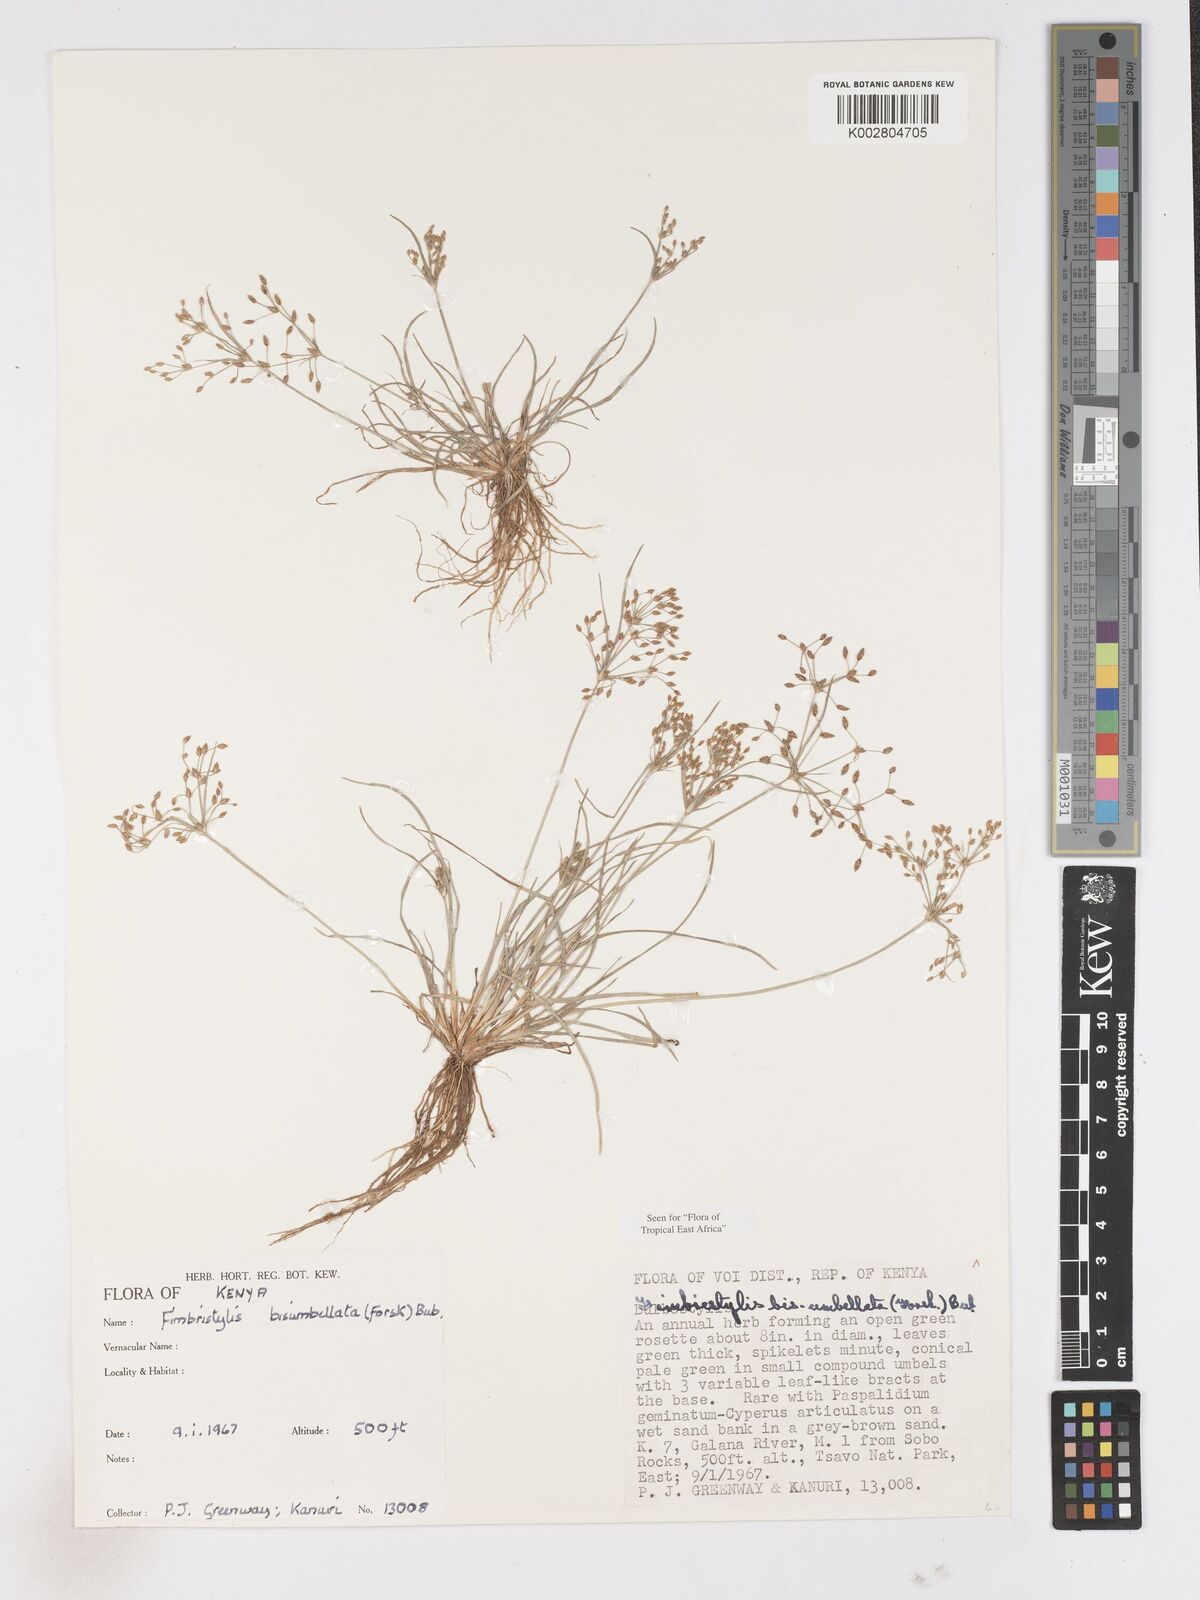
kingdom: Plantae
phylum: Tracheophyta
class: Liliopsida
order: Poales
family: Cyperaceae
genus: Fimbristylis
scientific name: Fimbristylis bisumbellata
